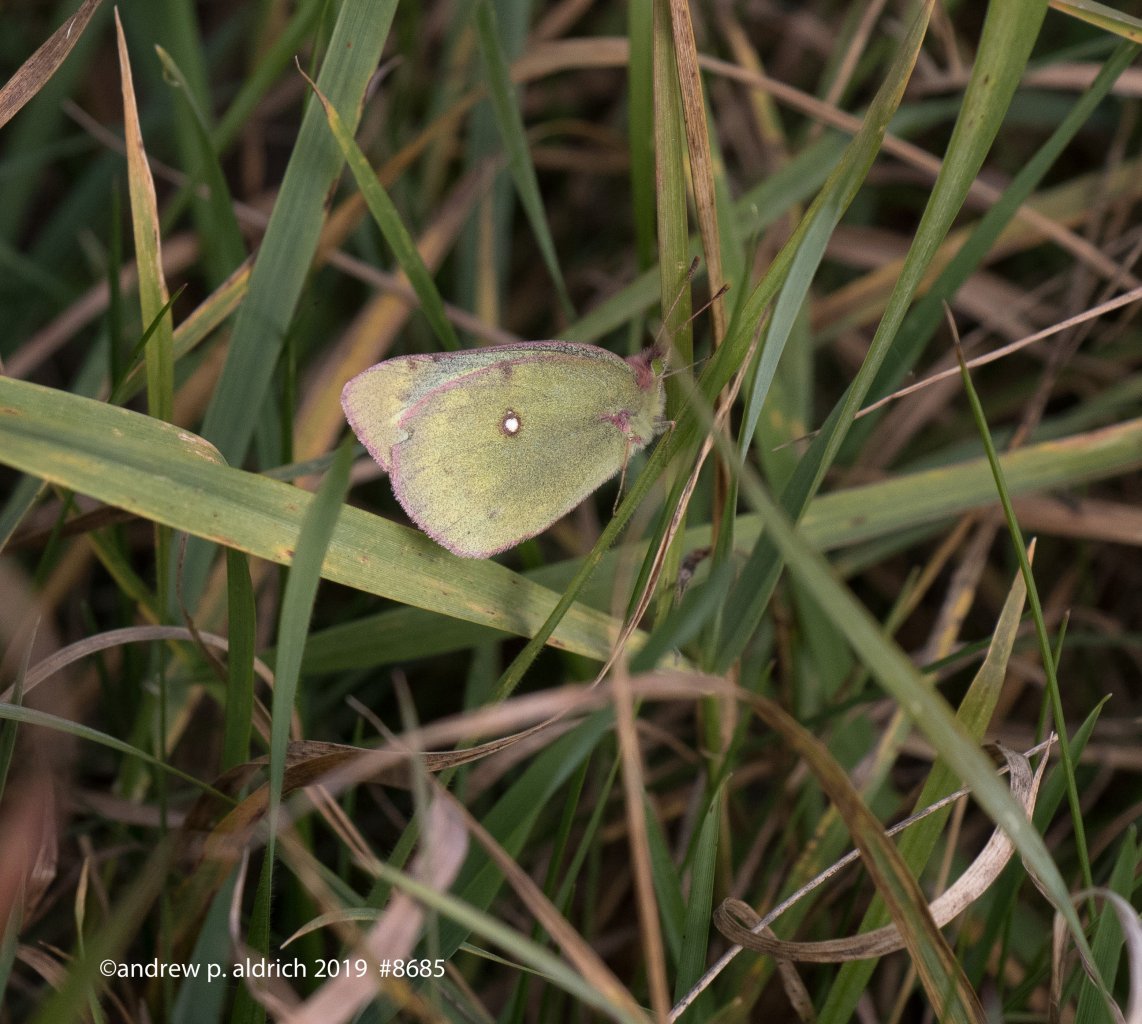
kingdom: Animalia
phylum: Arthropoda
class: Insecta
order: Lepidoptera
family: Pieridae
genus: Colias
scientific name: Colias
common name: Clouded Yellows
